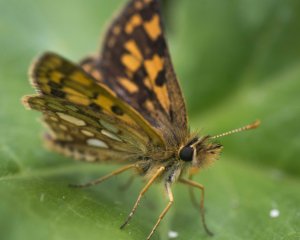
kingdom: Animalia
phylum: Arthropoda
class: Insecta
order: Lepidoptera
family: Hesperiidae
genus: Carterocephalus
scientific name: Carterocephalus palaemon
